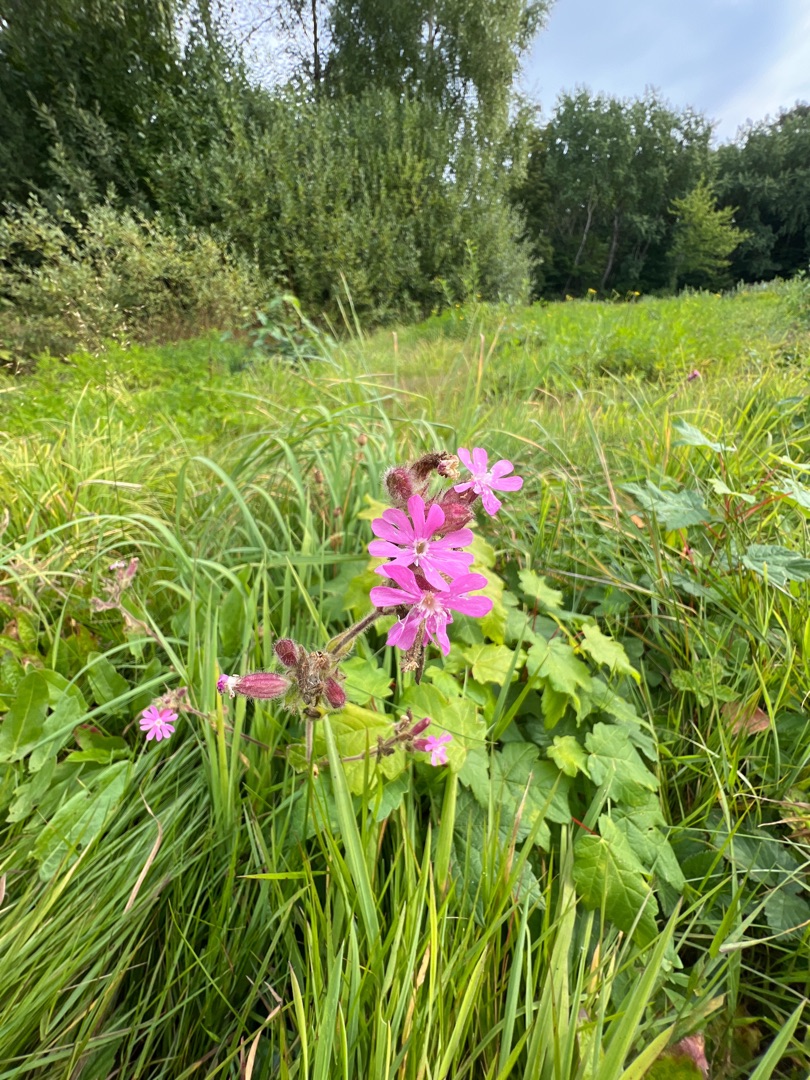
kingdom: Plantae
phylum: Tracheophyta
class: Magnoliopsida
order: Caryophyllales
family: Caryophyllaceae
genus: Silene
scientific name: Silene dioica
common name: Dagpragtstjerne
